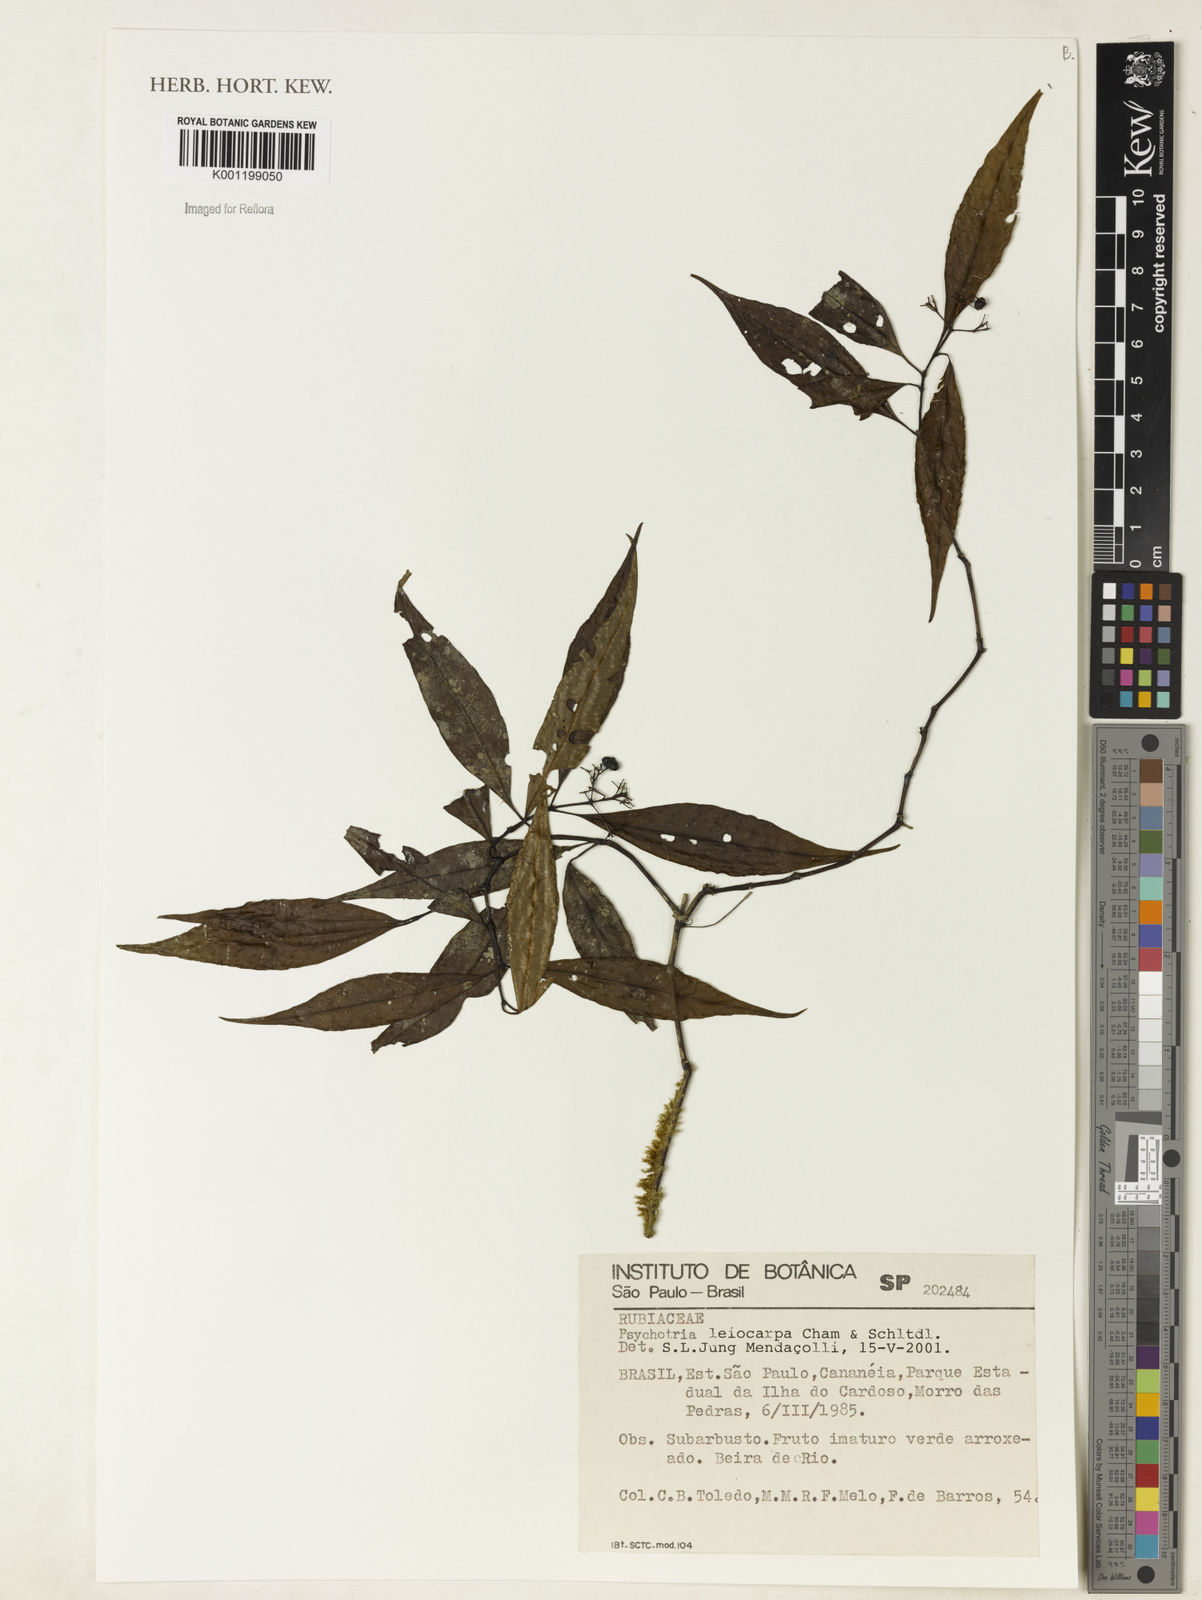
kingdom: Plantae
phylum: Tracheophyta
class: Magnoliopsida
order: Gentianales
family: Rubiaceae
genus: Psychotria
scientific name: Psychotria leiocarpa
